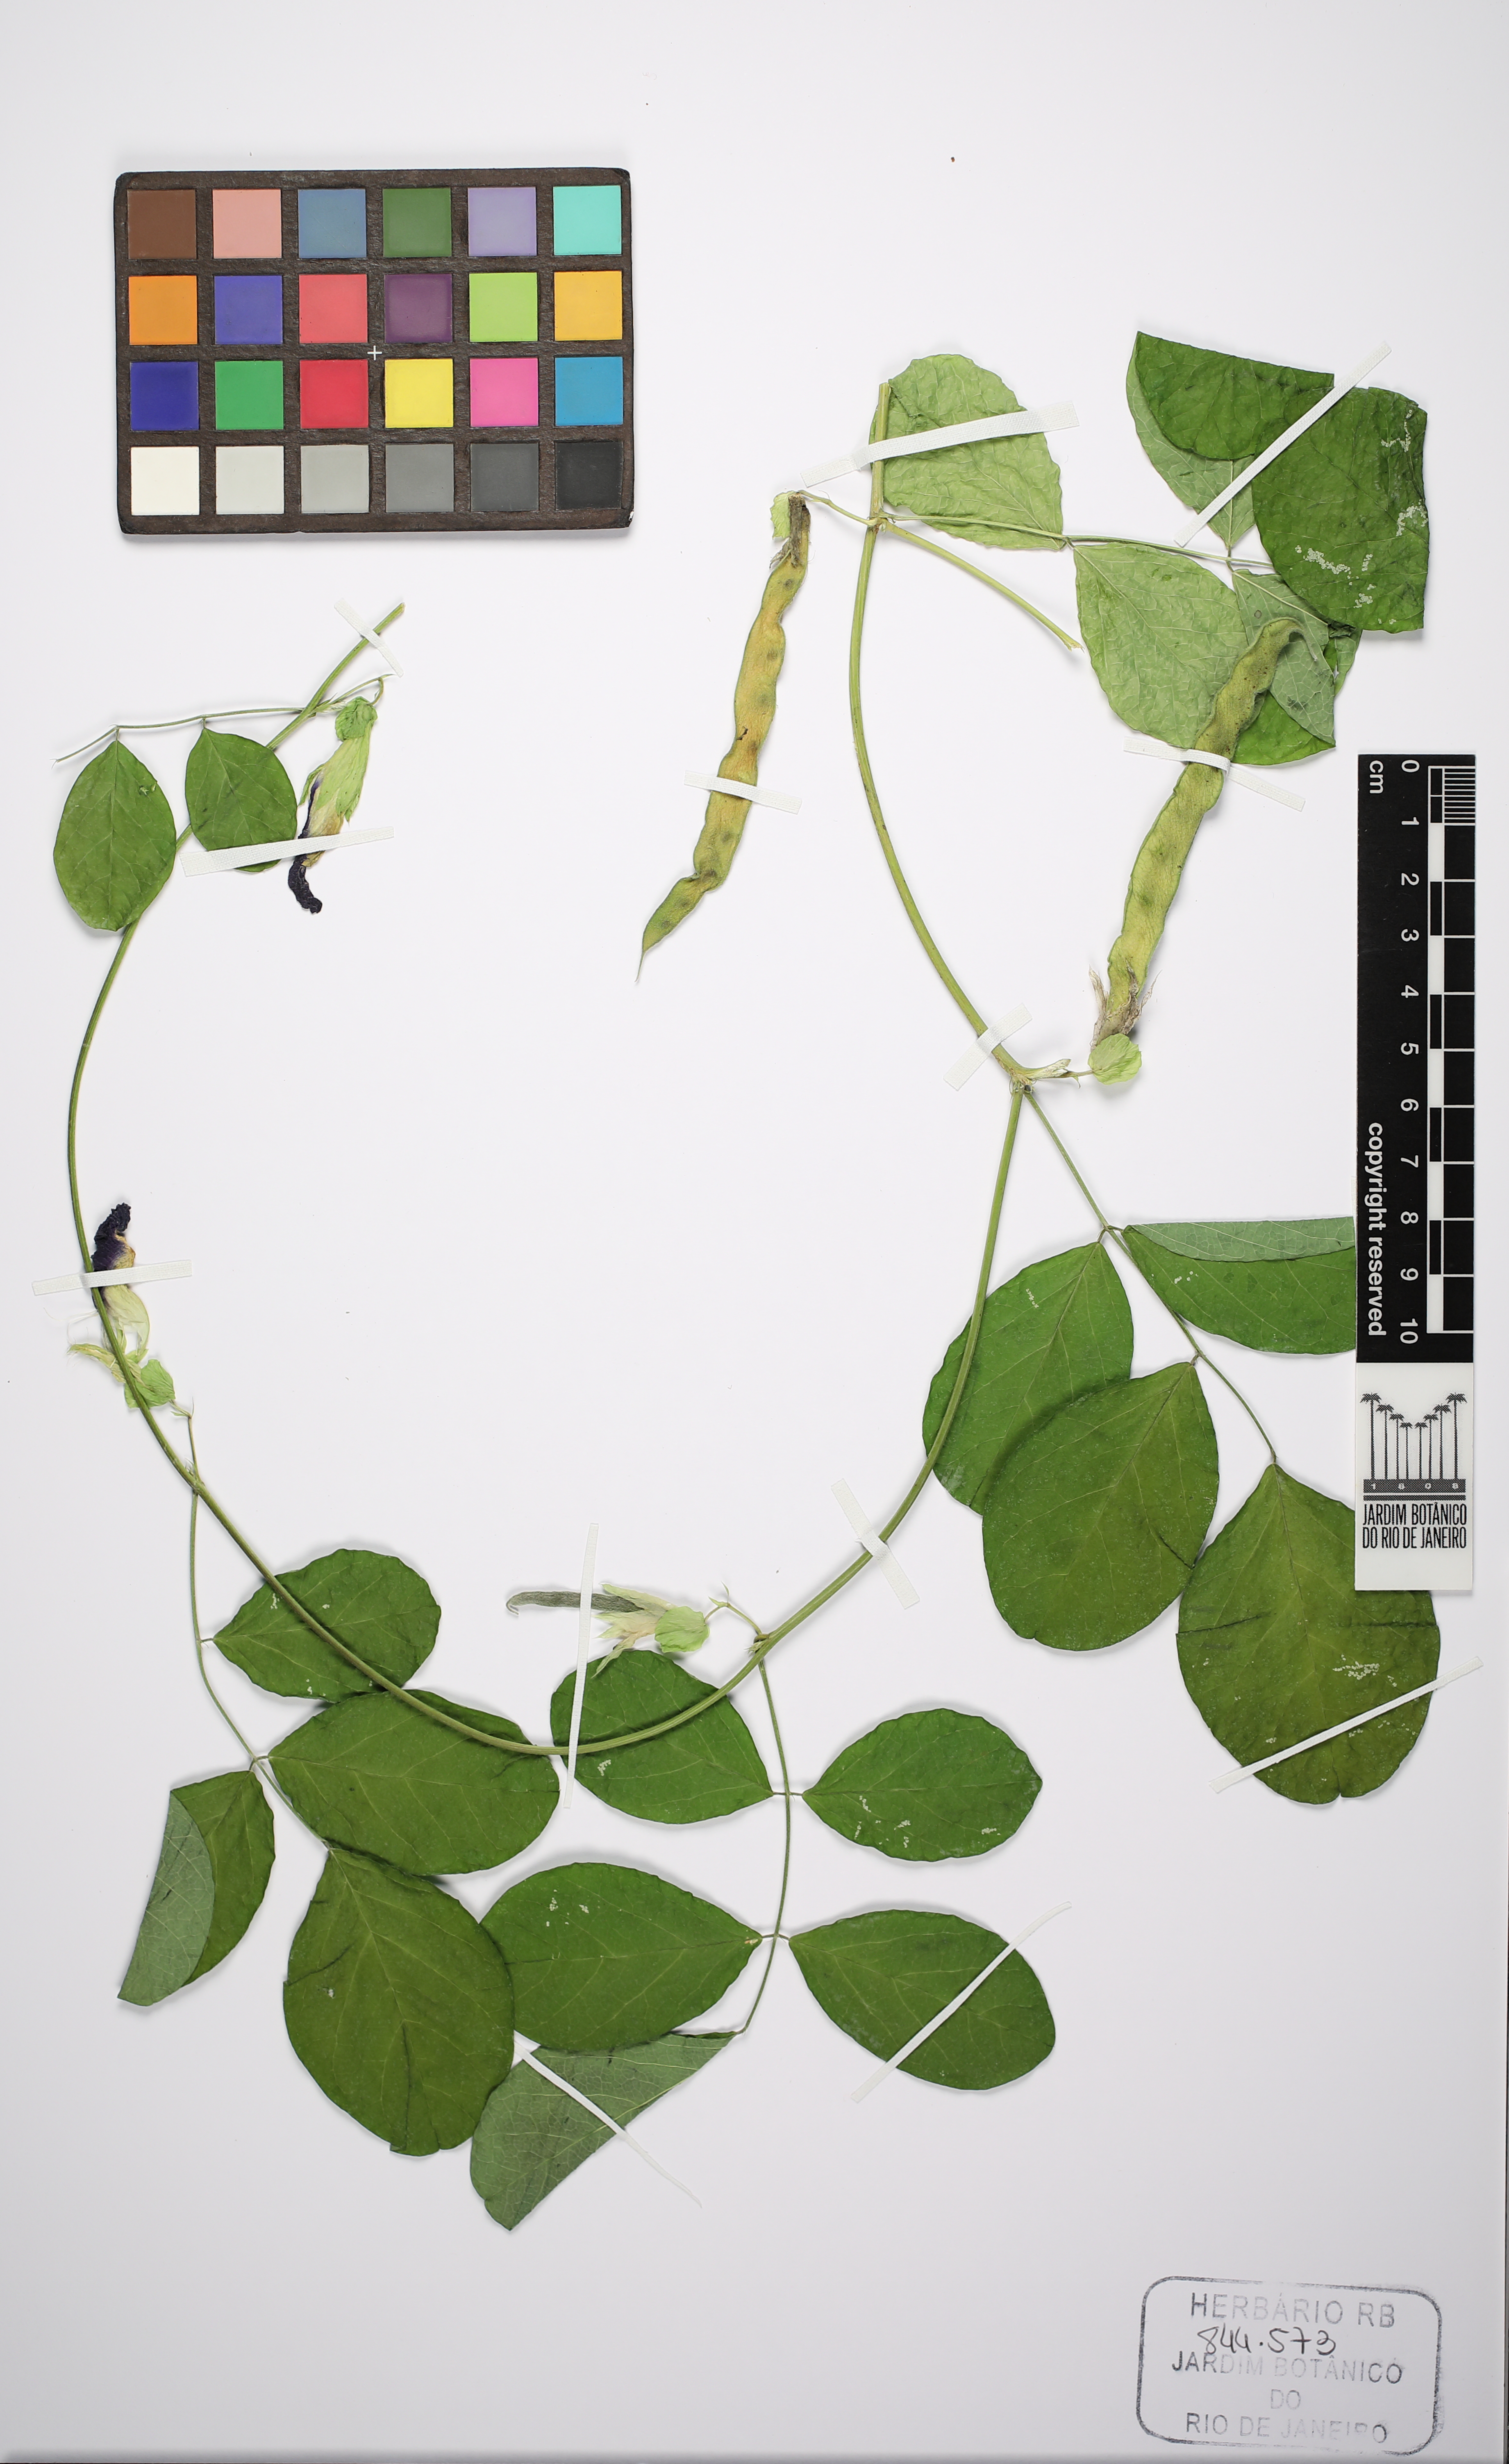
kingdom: Plantae
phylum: Tracheophyta
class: Magnoliopsida
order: Fabales
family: Fabaceae
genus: Clitoria
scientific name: Clitoria ternatea
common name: Asian pigeonwings
